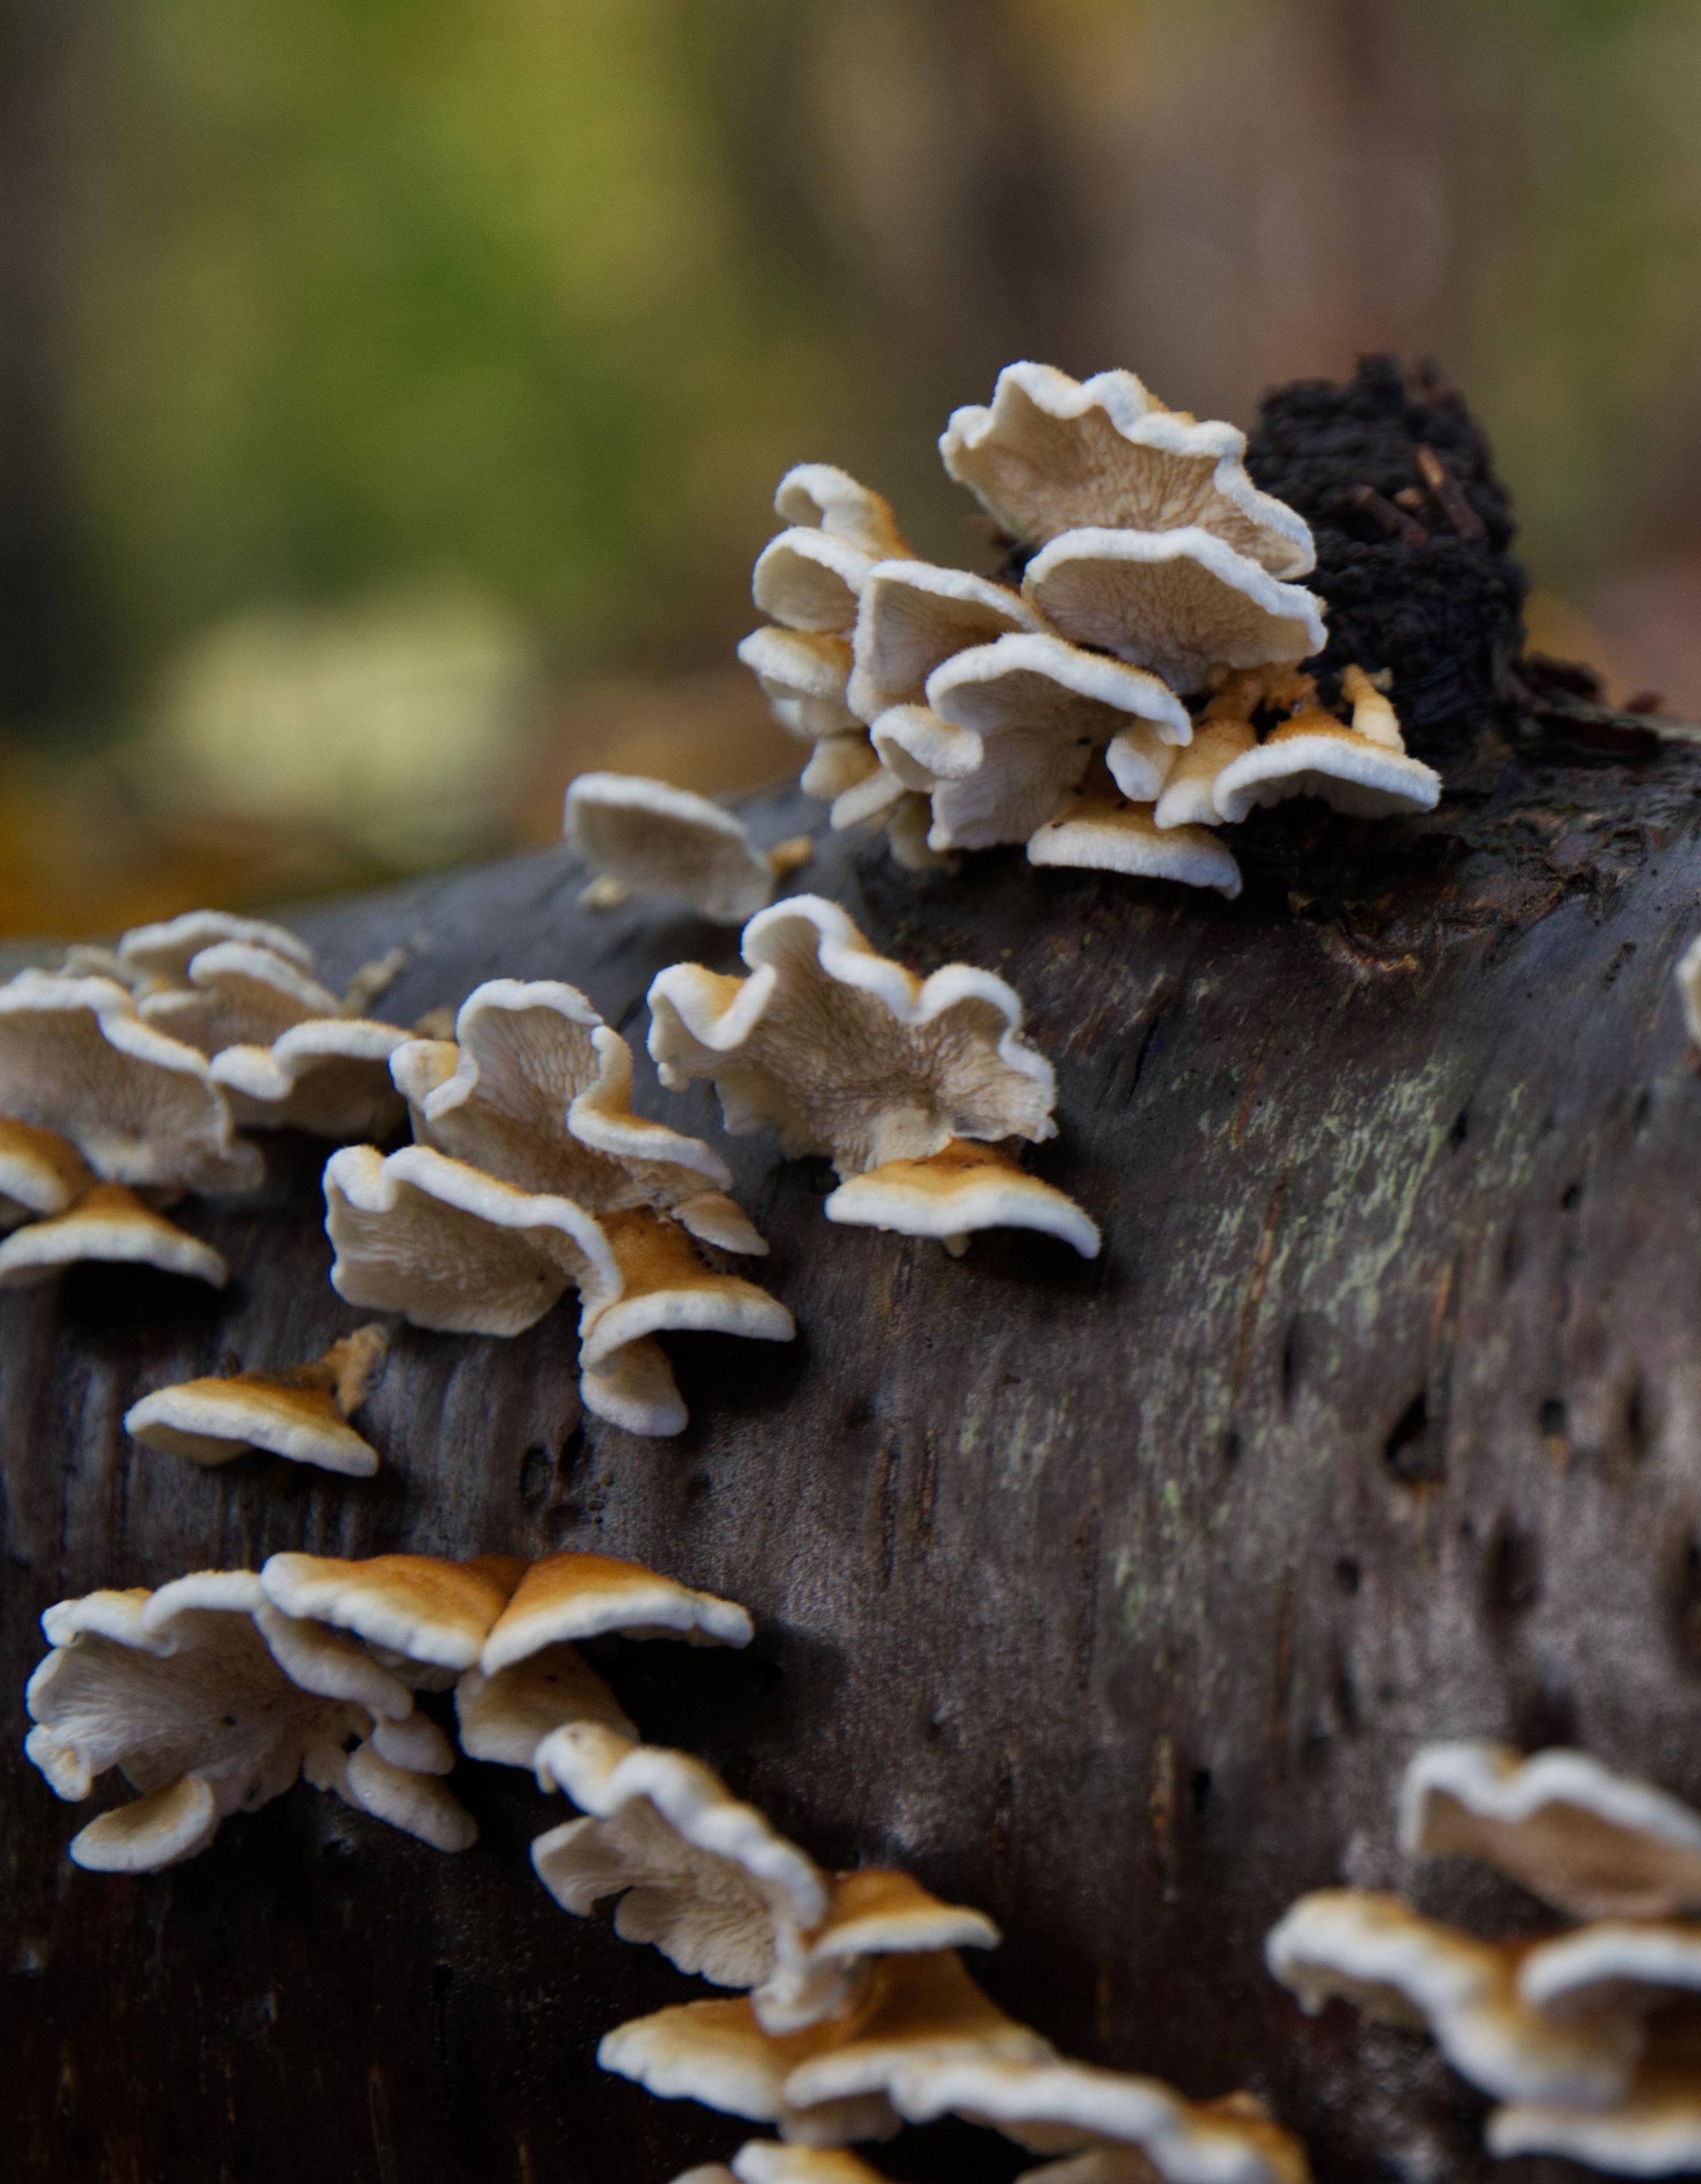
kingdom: Fungi
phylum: Basidiomycota
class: Agaricomycetes
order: Amylocorticiales
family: Amylocorticiaceae
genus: Plicaturopsis
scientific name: Plicaturopsis crispa
